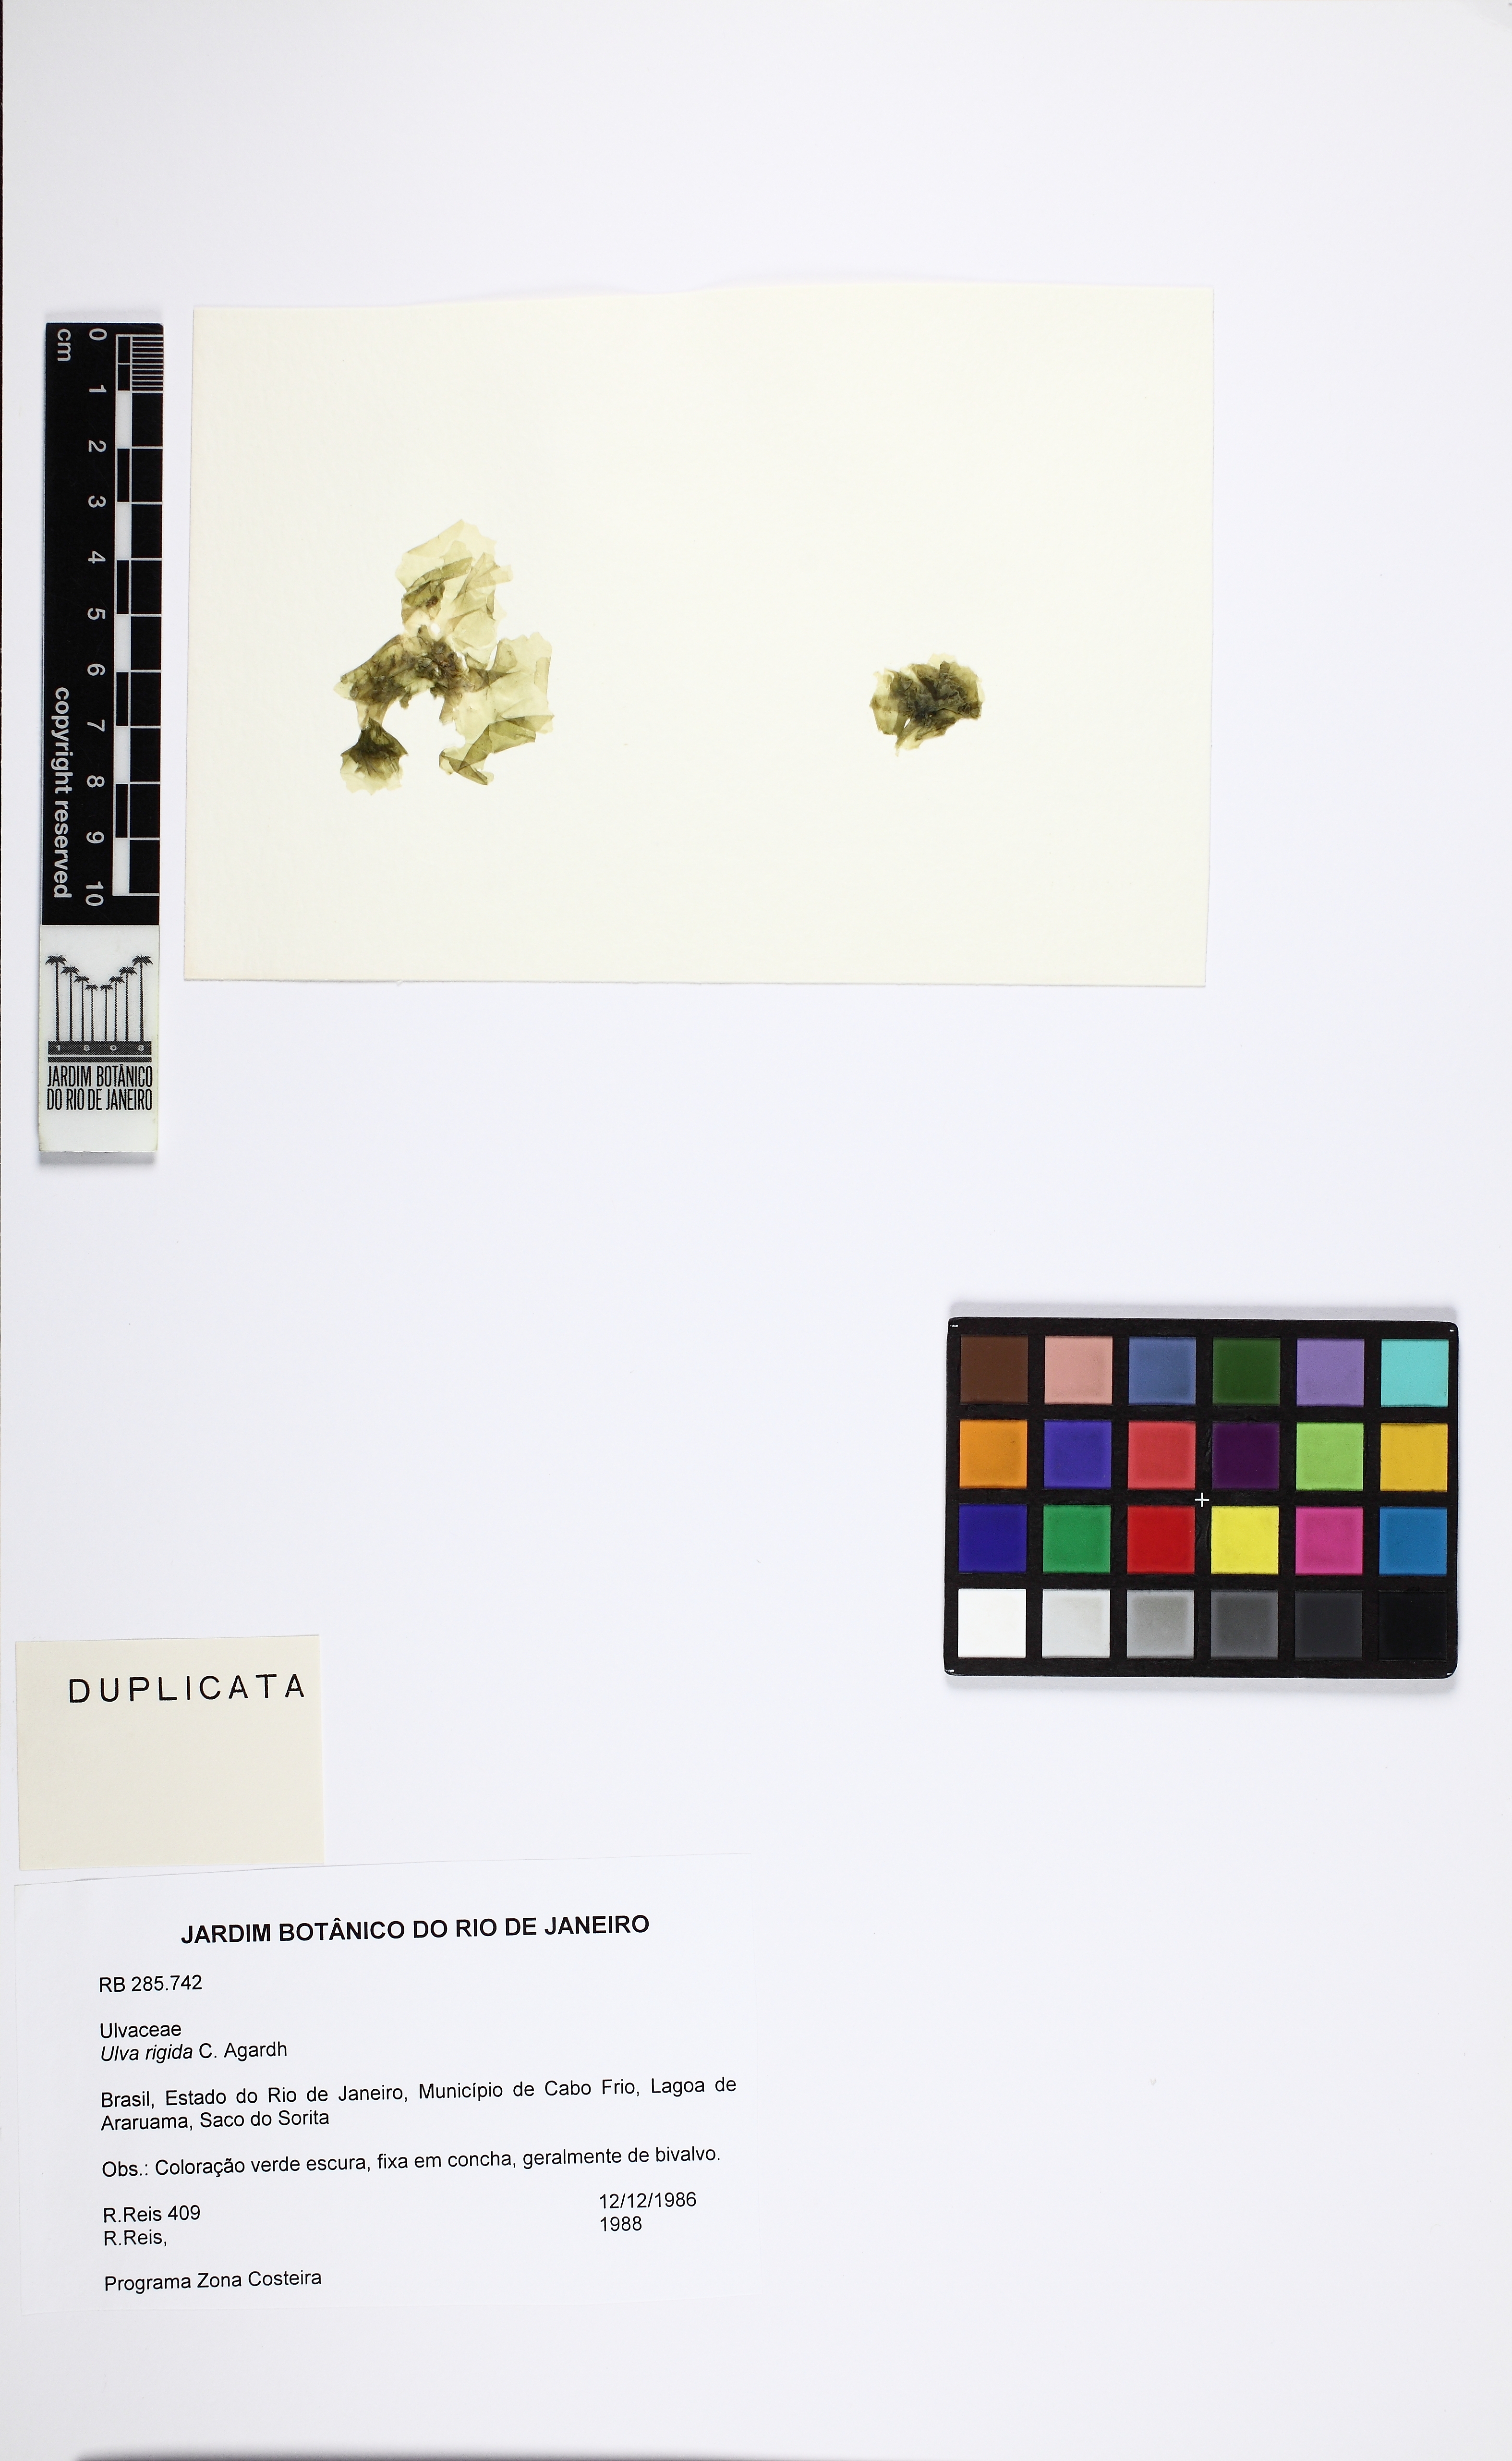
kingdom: Plantae
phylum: Chlorophyta
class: Ulvophyceae
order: Ulvales
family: Ulvaceae
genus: Ulva
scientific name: Ulva rigida
